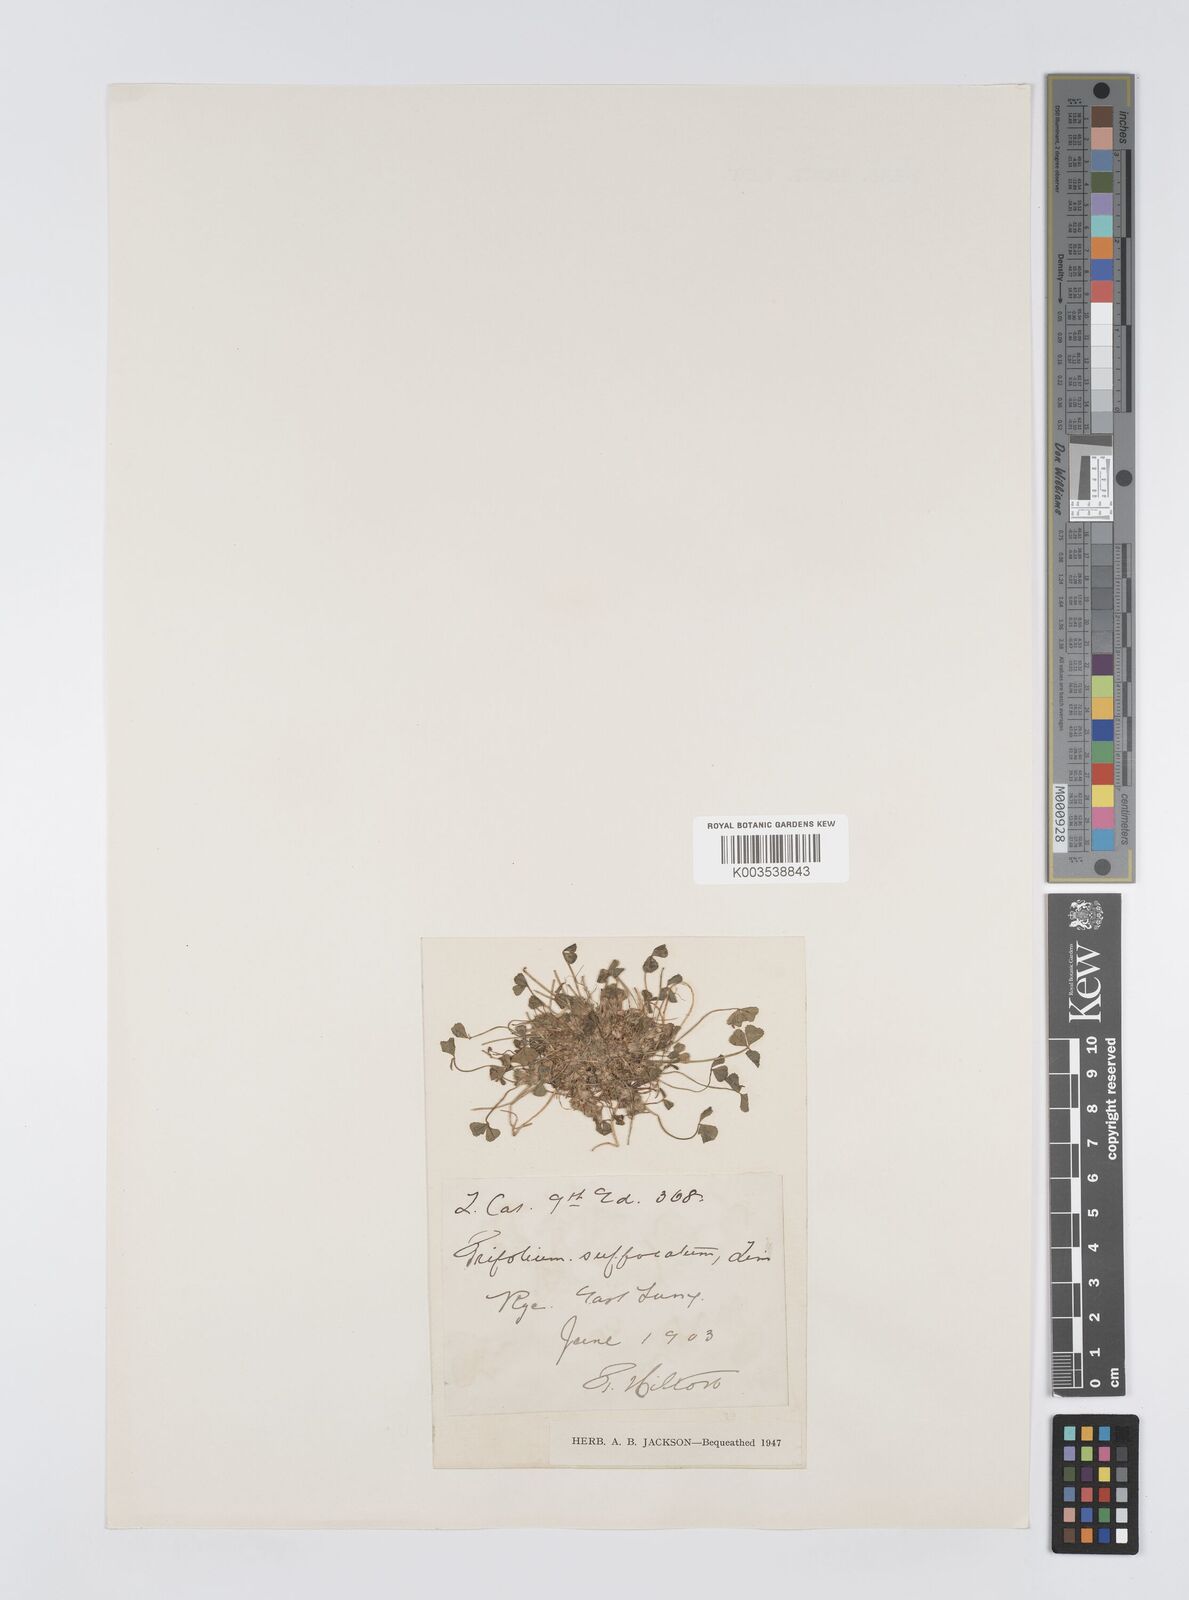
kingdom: Plantae
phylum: Tracheophyta
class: Magnoliopsida
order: Fabales
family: Fabaceae
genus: Trifolium
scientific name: Trifolium suffocatum
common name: Suffocated clover
